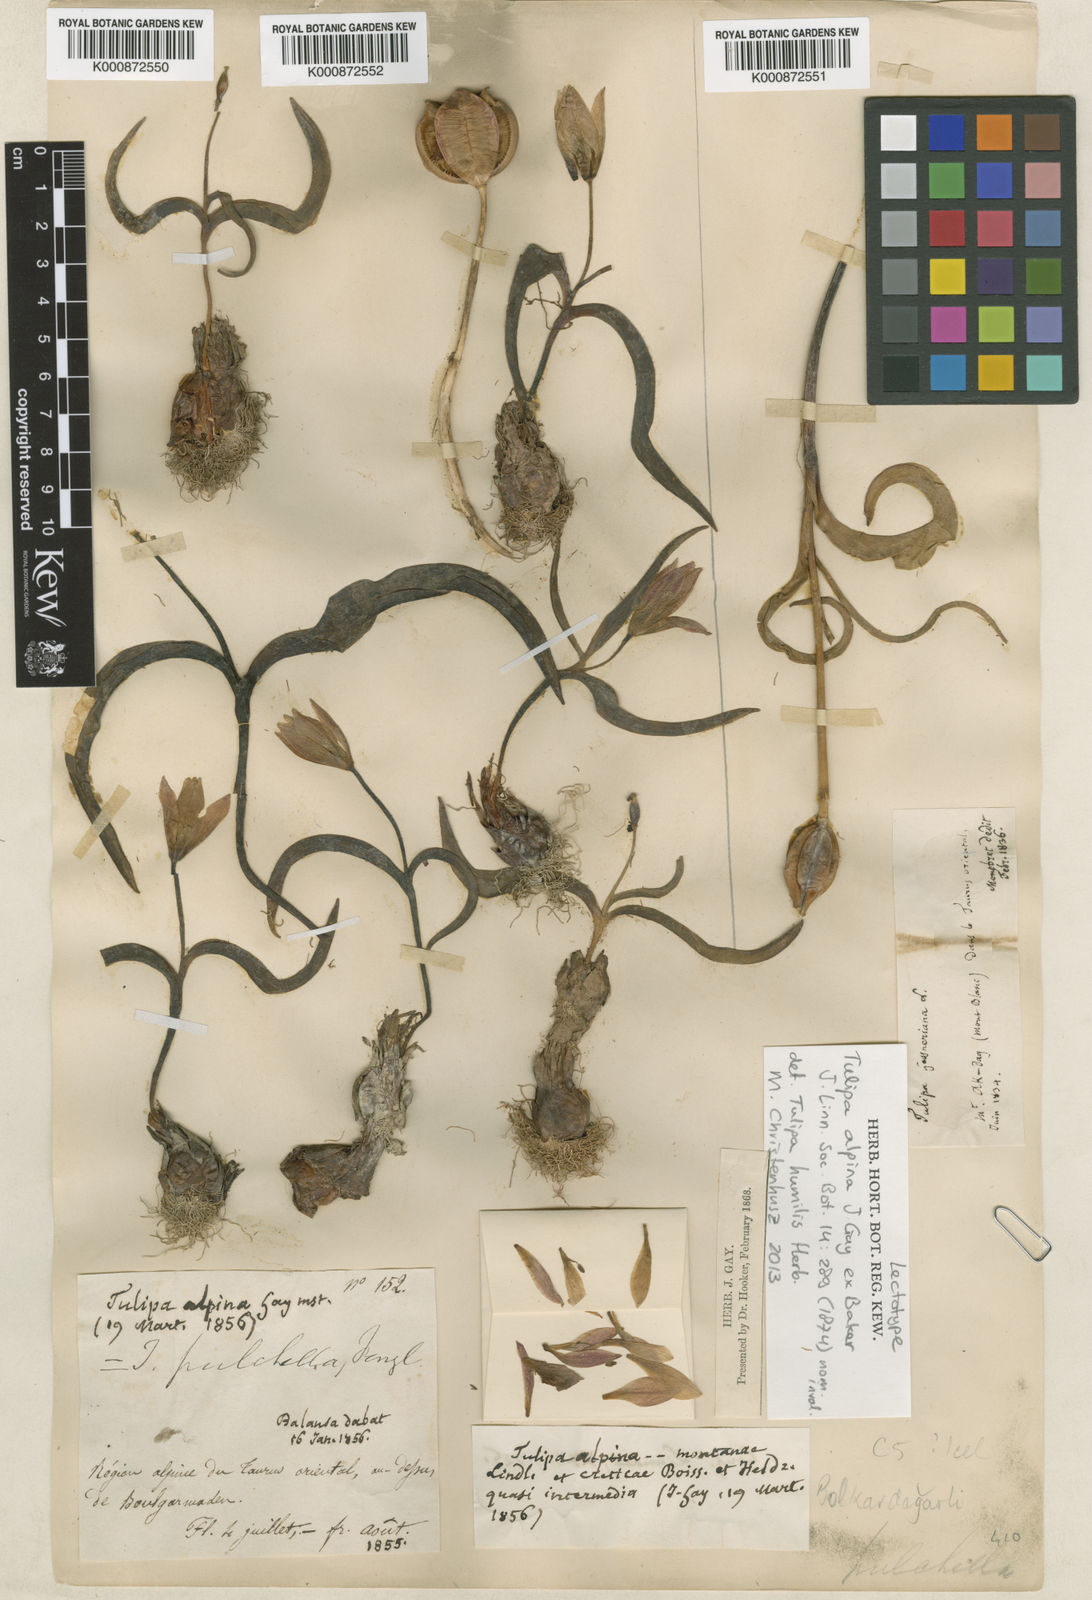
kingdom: Plantae
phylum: Tracheophyta
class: Liliopsida
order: Liliales
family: Liliaceae
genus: Tulipa
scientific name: Tulipa humilis
